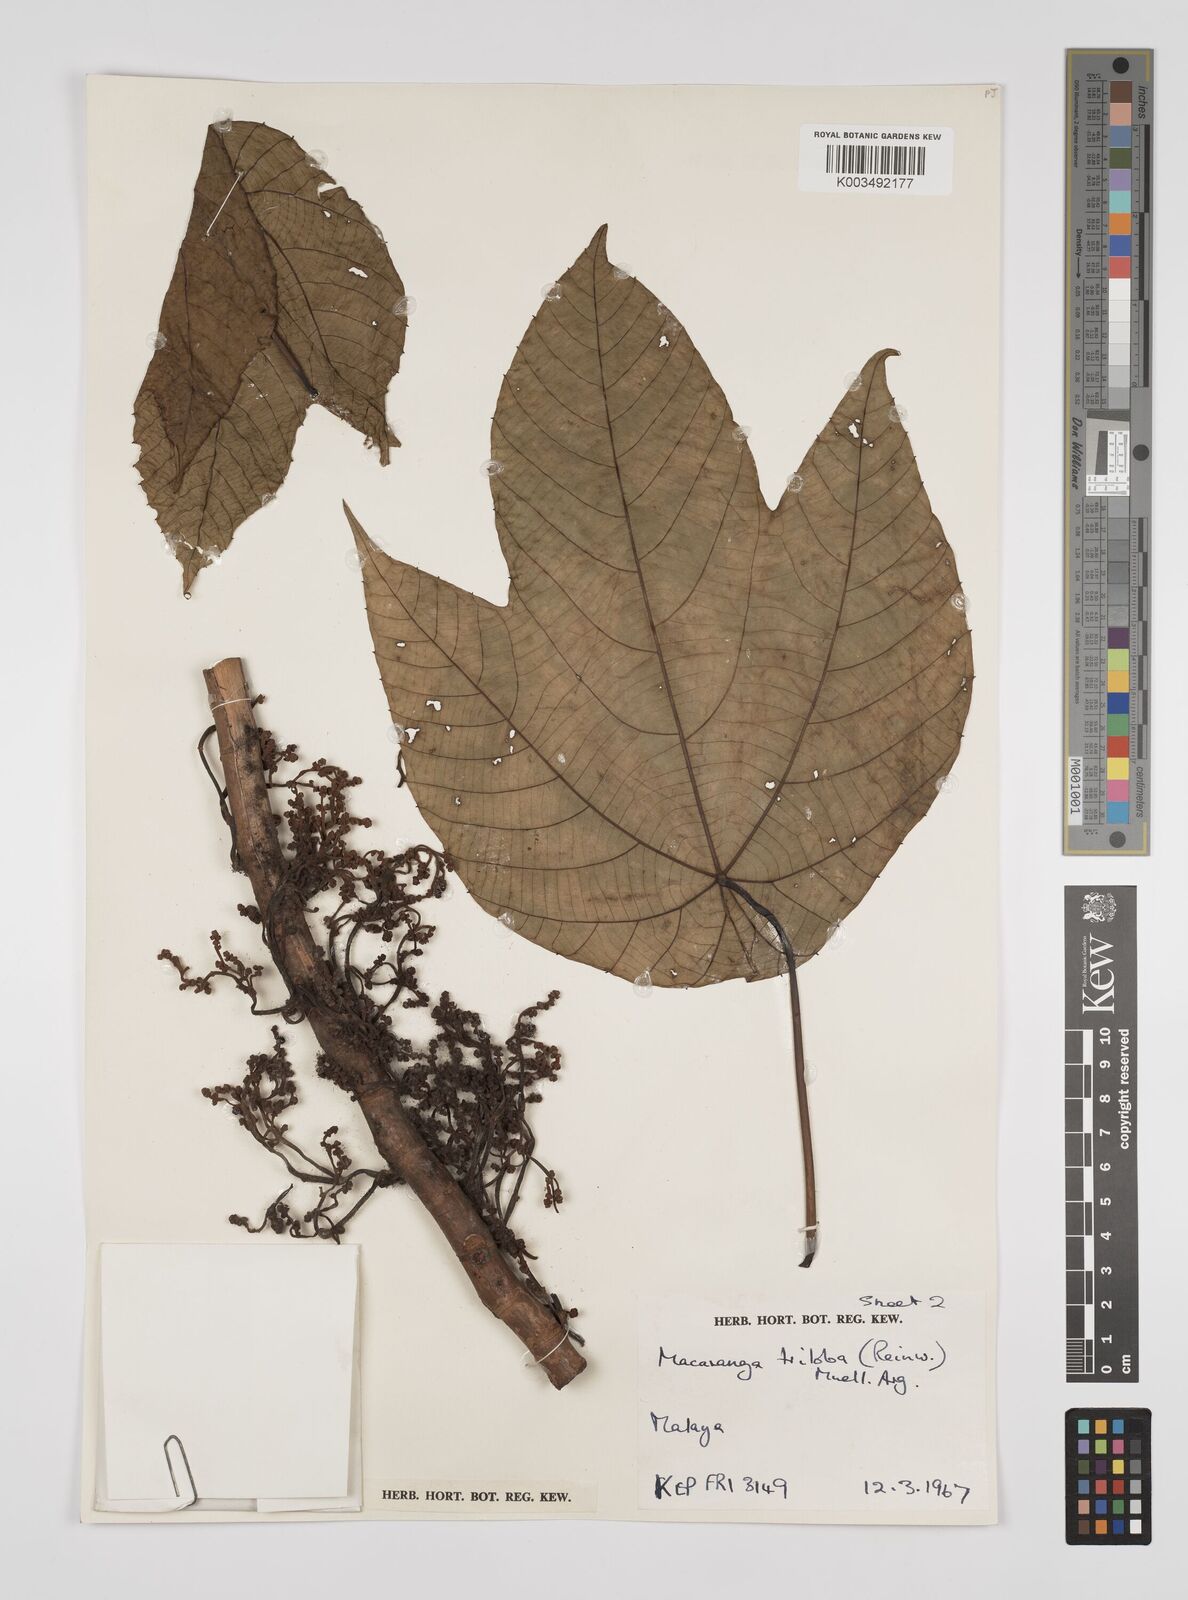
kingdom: Plantae
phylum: Tracheophyta
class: Magnoliopsida
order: Malpighiales
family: Euphorbiaceae
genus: Macaranga
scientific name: Macaranga triloba
